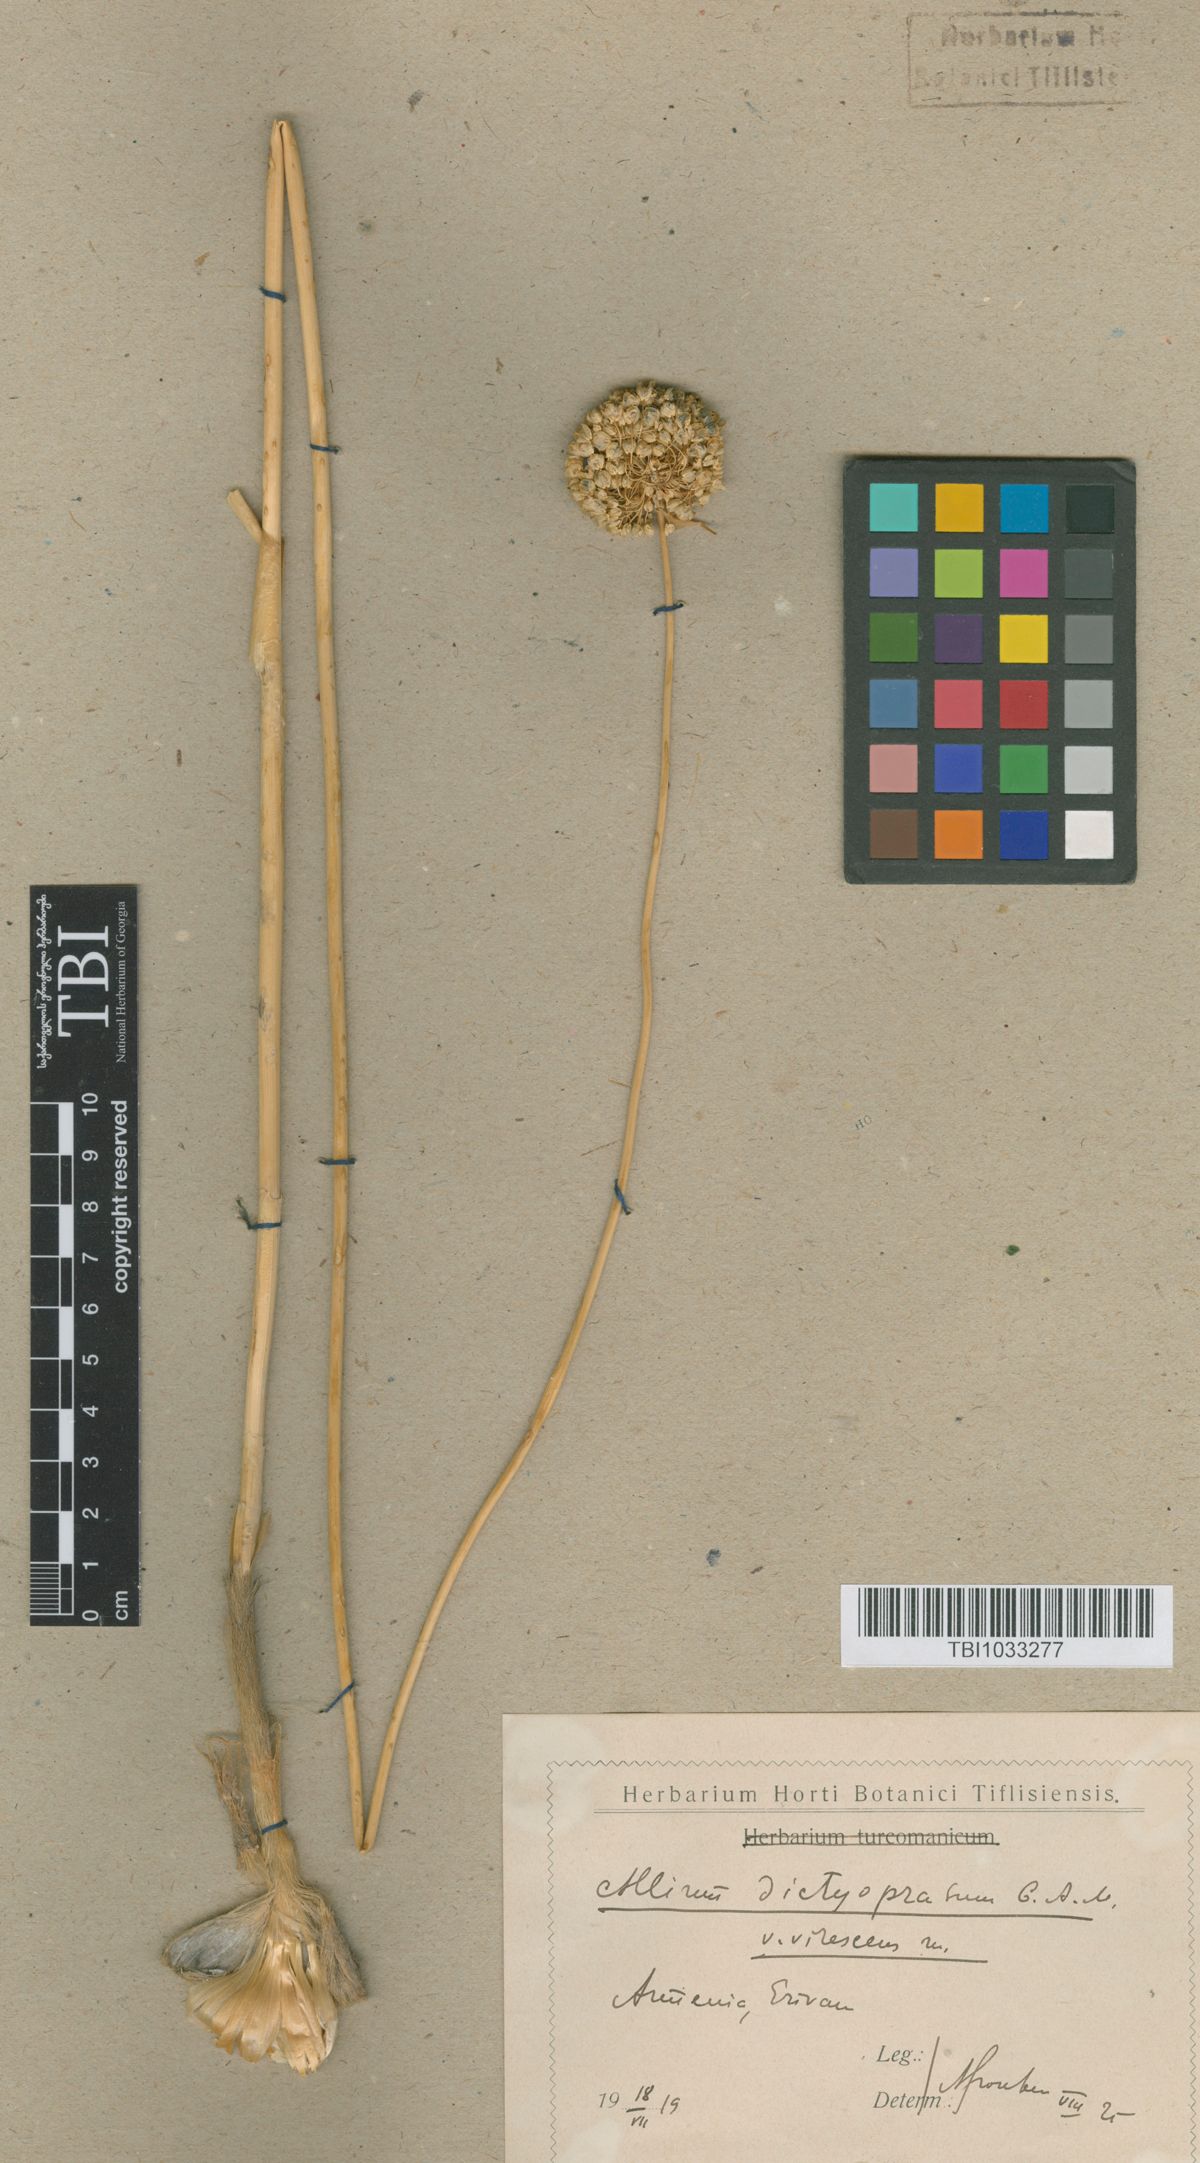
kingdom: Plantae
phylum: Tracheophyta
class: Liliopsida
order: Asparagales
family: Amaryllidaceae
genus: Allium
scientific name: Allium dictyoprasum
